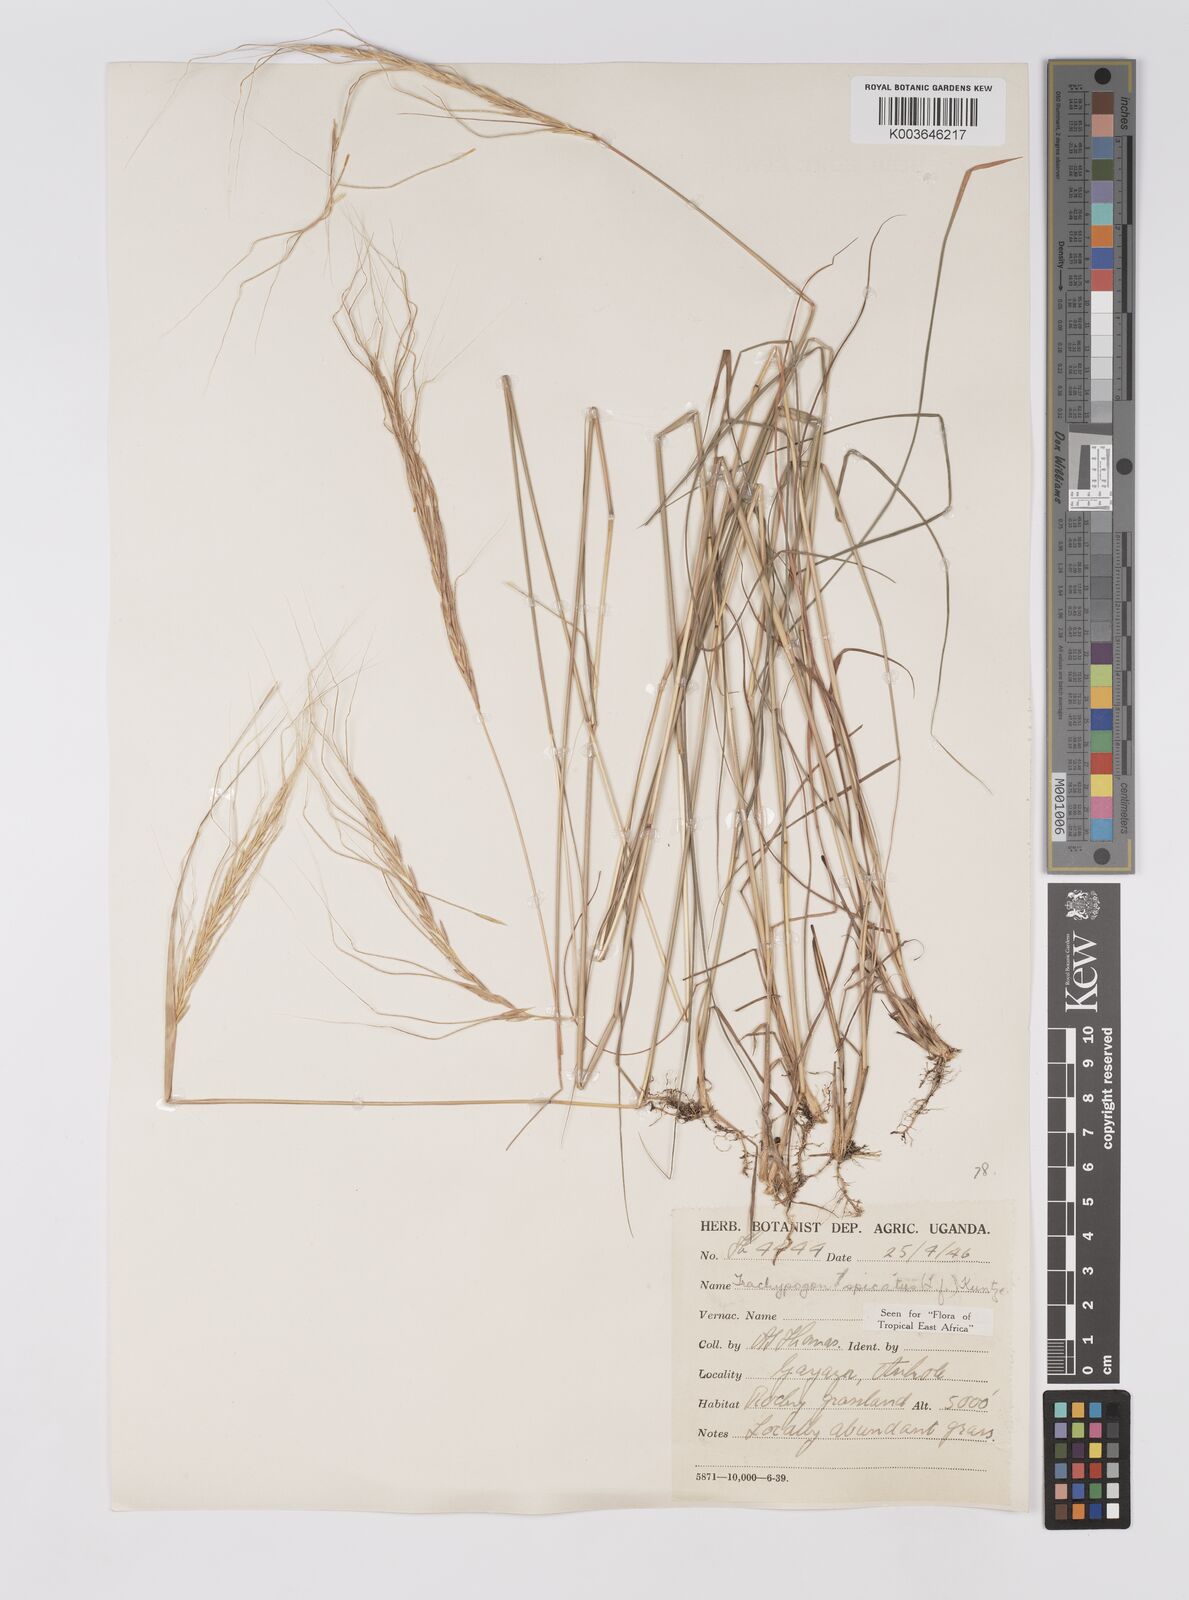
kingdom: Plantae
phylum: Tracheophyta
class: Liliopsida
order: Poales
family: Poaceae
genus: Trachypogon
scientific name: Trachypogon spicatus
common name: Crinkle-awn
